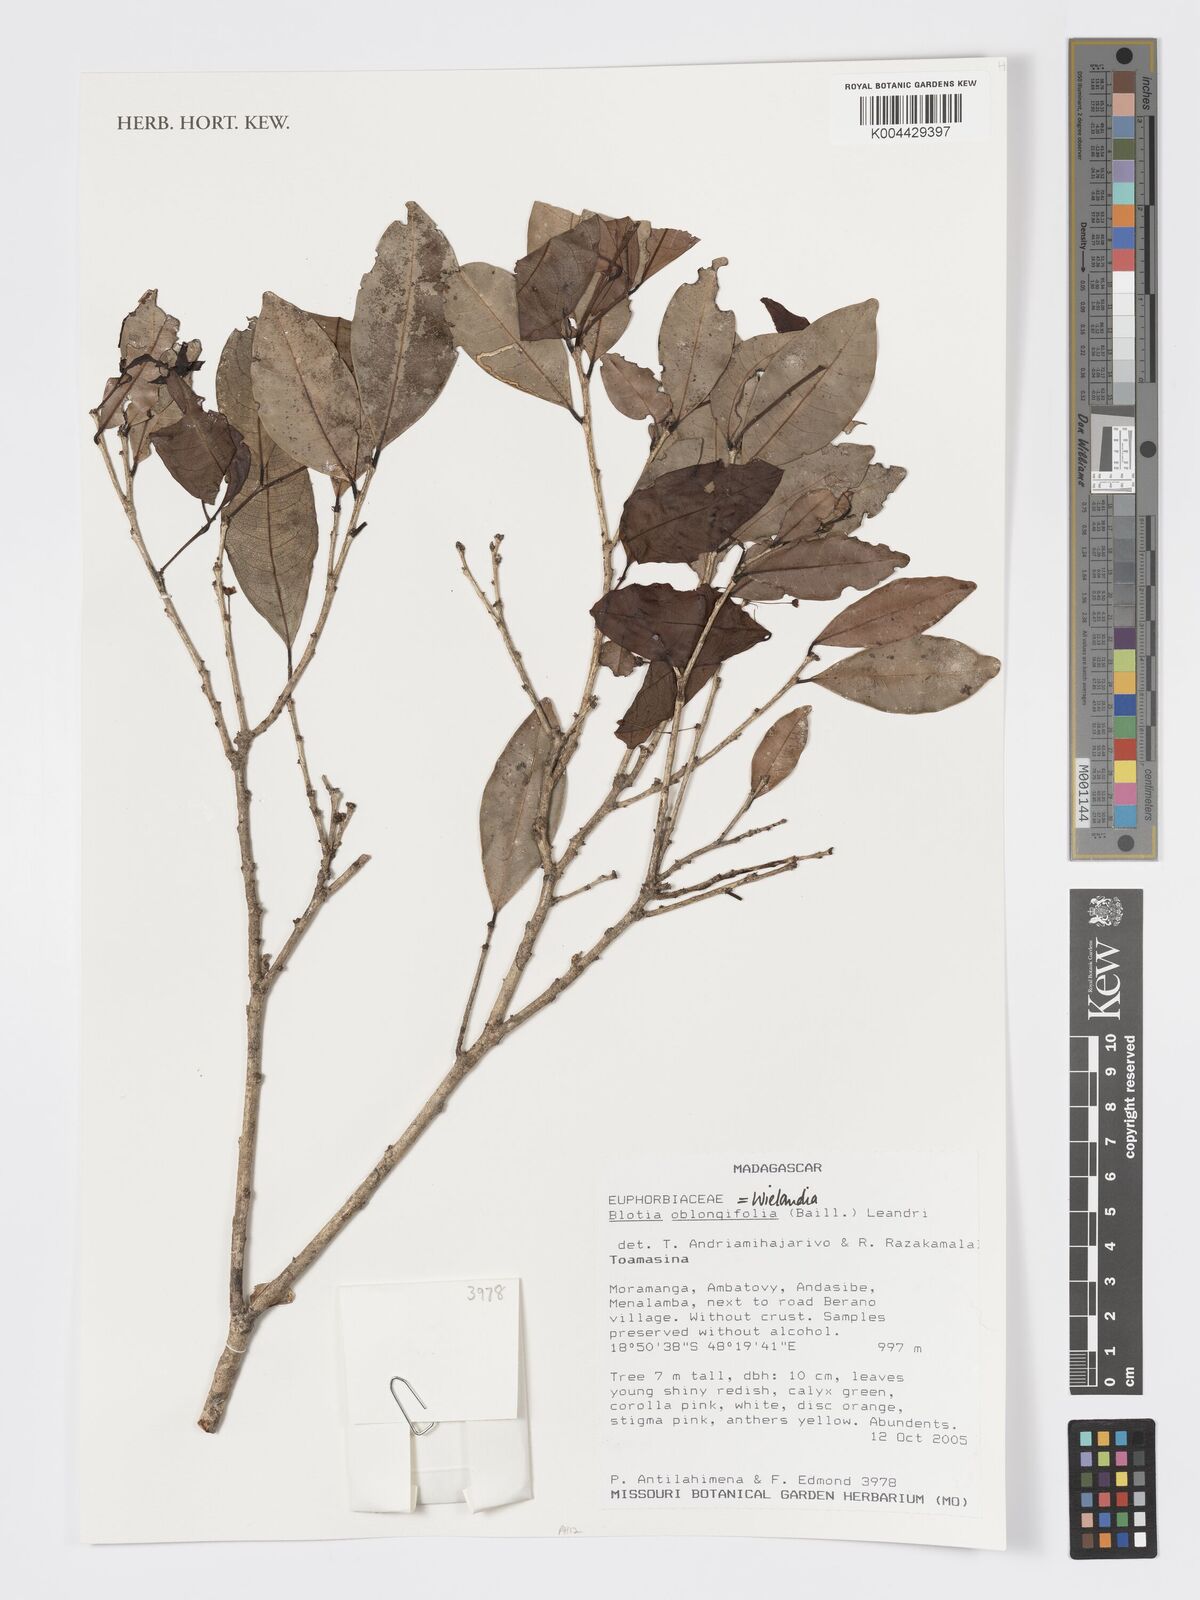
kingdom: Plantae
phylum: Tracheophyta
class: Magnoliopsida
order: Malpighiales
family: Phyllanthaceae
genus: Wielandia
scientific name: Wielandia oblongifolia
